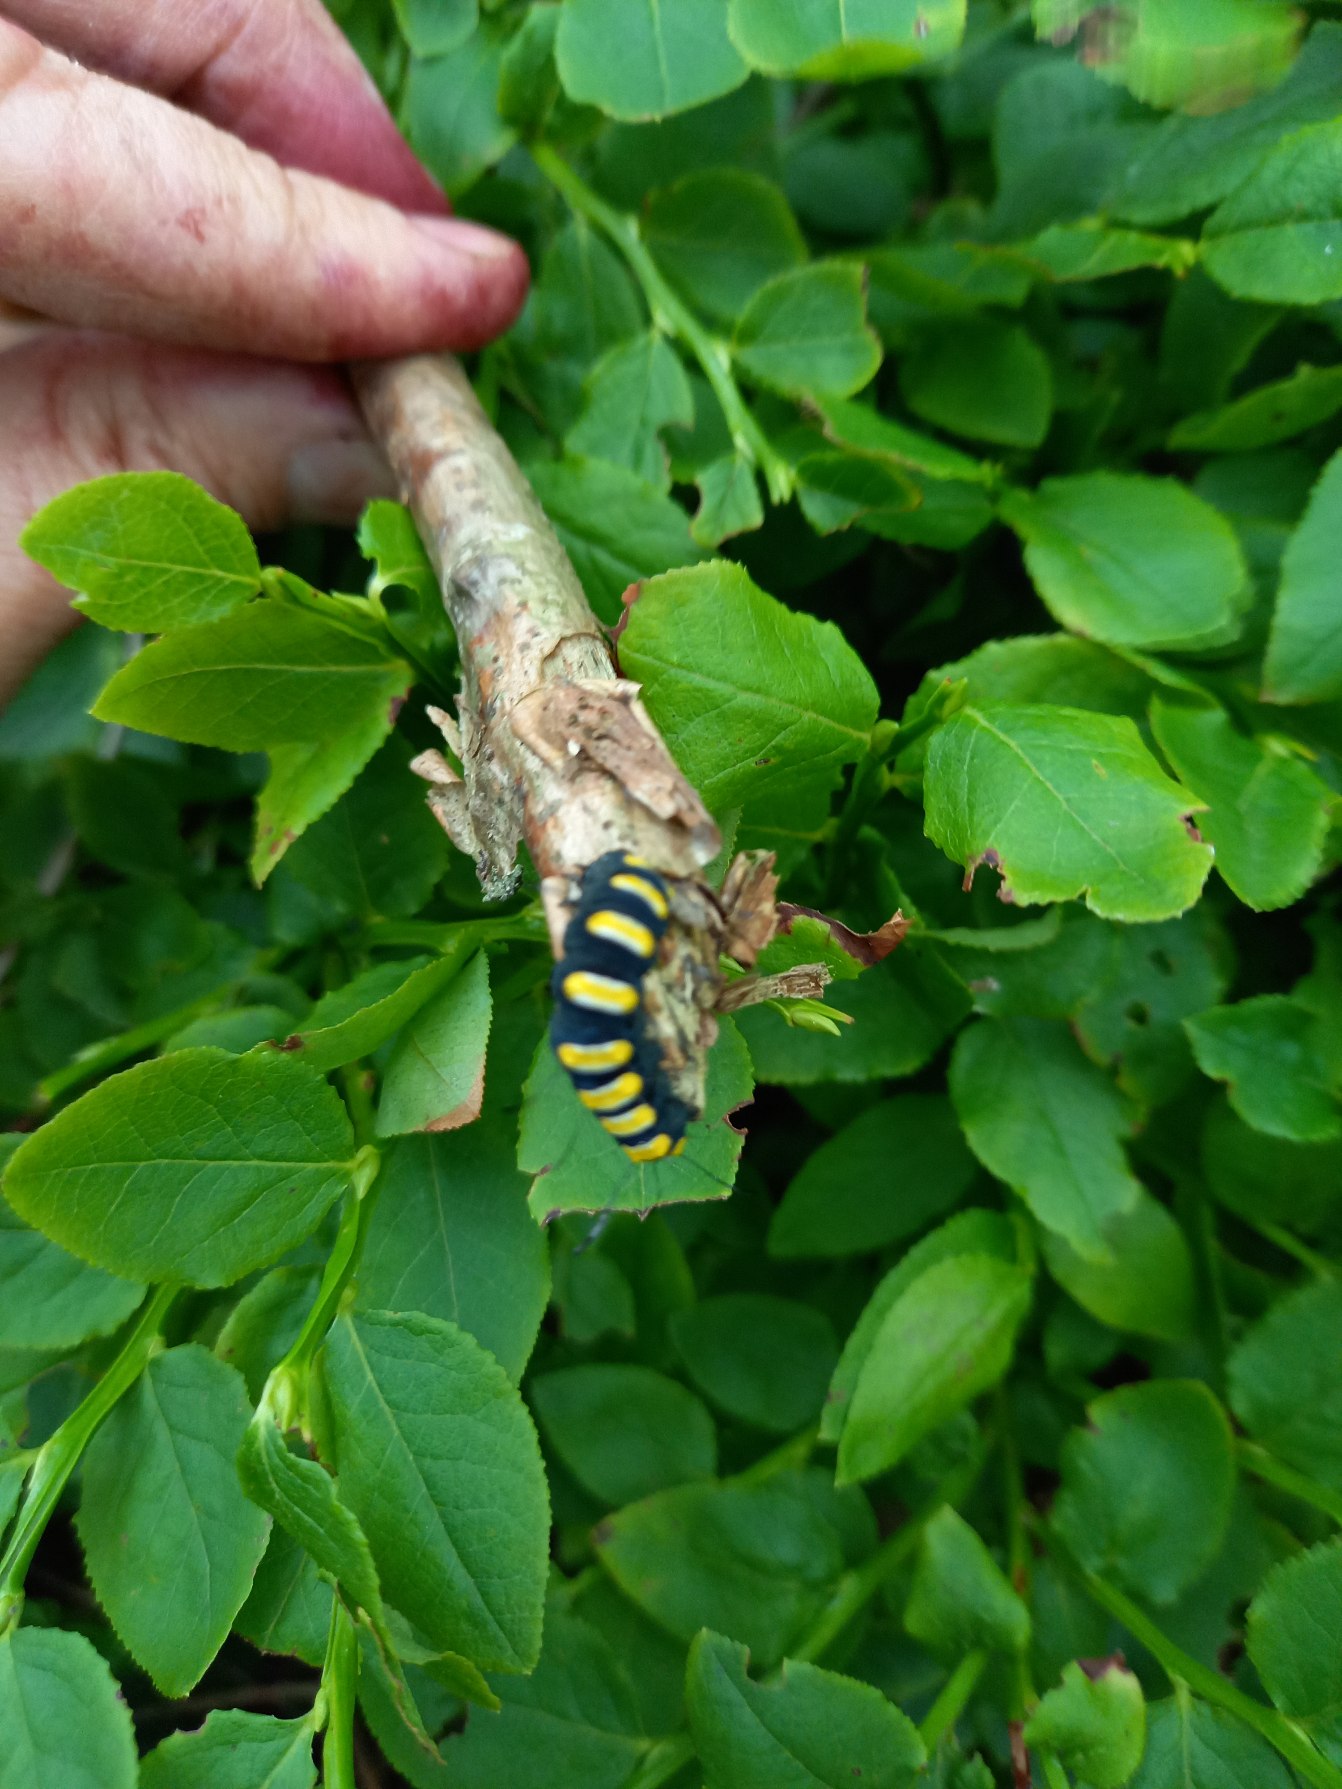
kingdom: Animalia
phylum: Arthropoda
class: Insecta
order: Lepidoptera
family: Noctuidae
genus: Acronicta
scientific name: Acronicta alni
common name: Kølleugle
